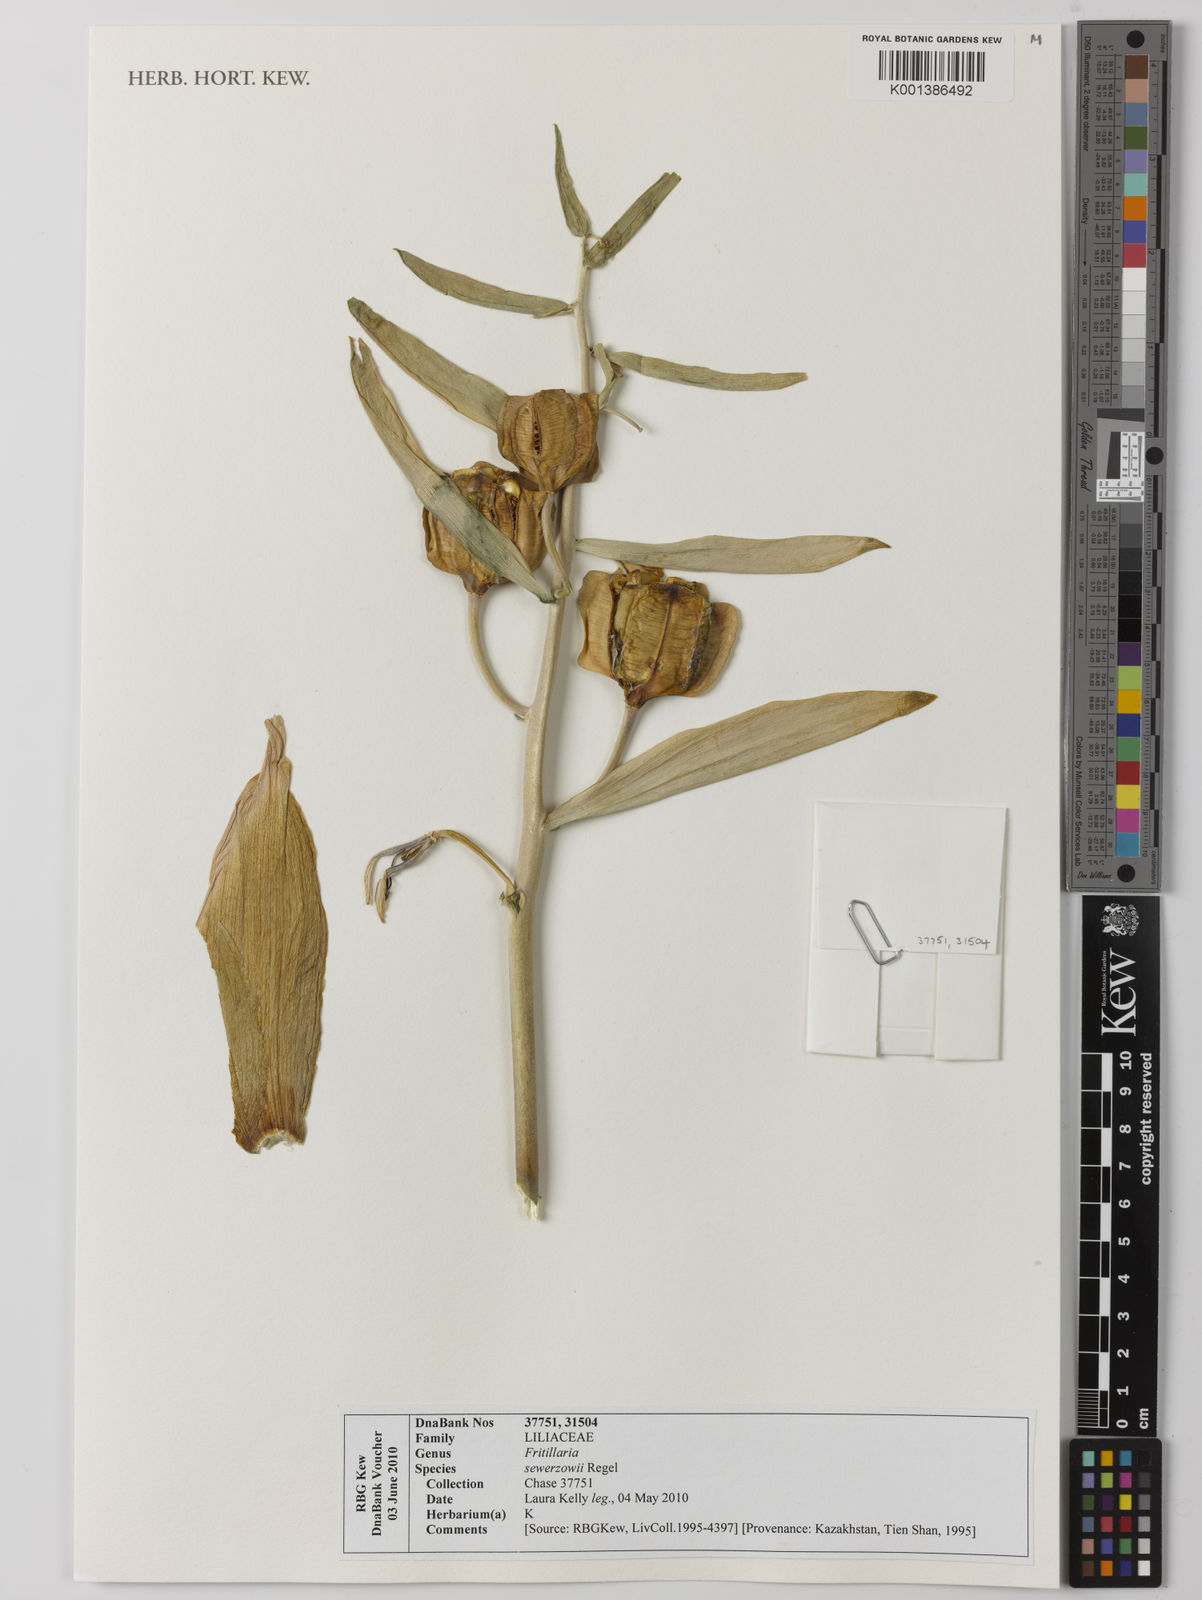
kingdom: Plantae
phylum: Tracheophyta
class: Liliopsida
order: Liliales
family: Liliaceae
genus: Fritillaria
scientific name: Fritillaria sewerzowii
